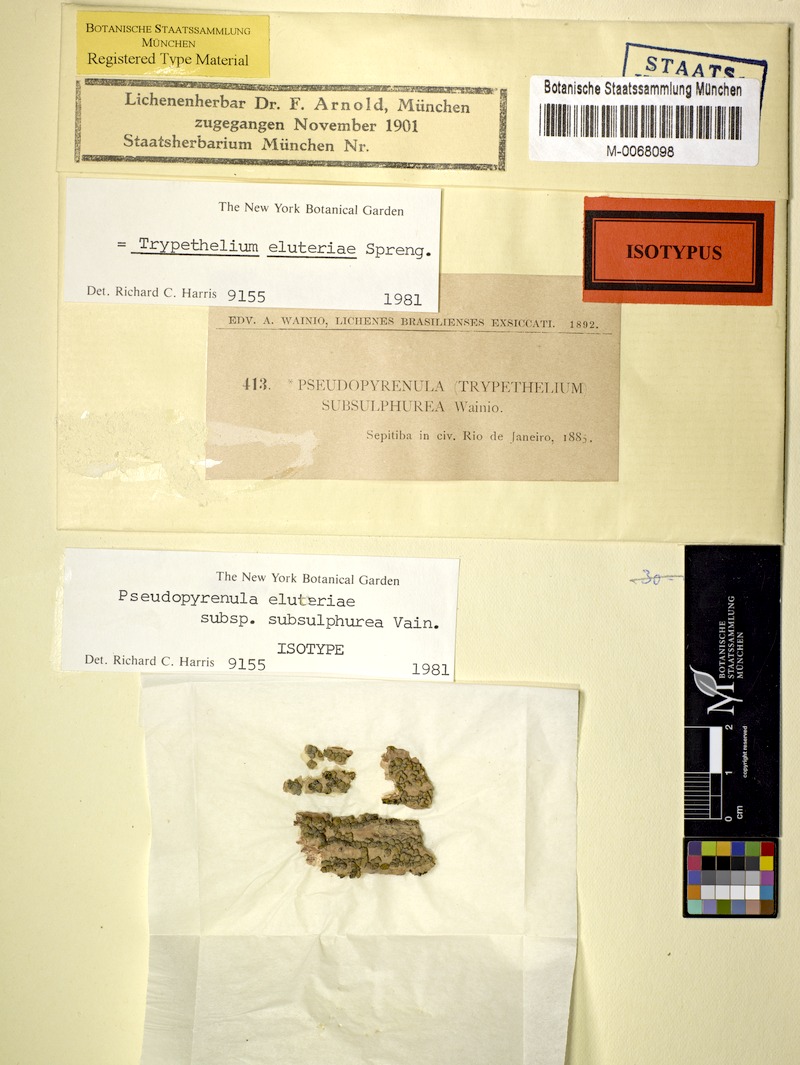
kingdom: Fungi
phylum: Ascomycota
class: Dothideomycetes
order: Trypetheliales
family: Trypetheliaceae
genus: Trypethelium
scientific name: Trypethelium eluteriae
